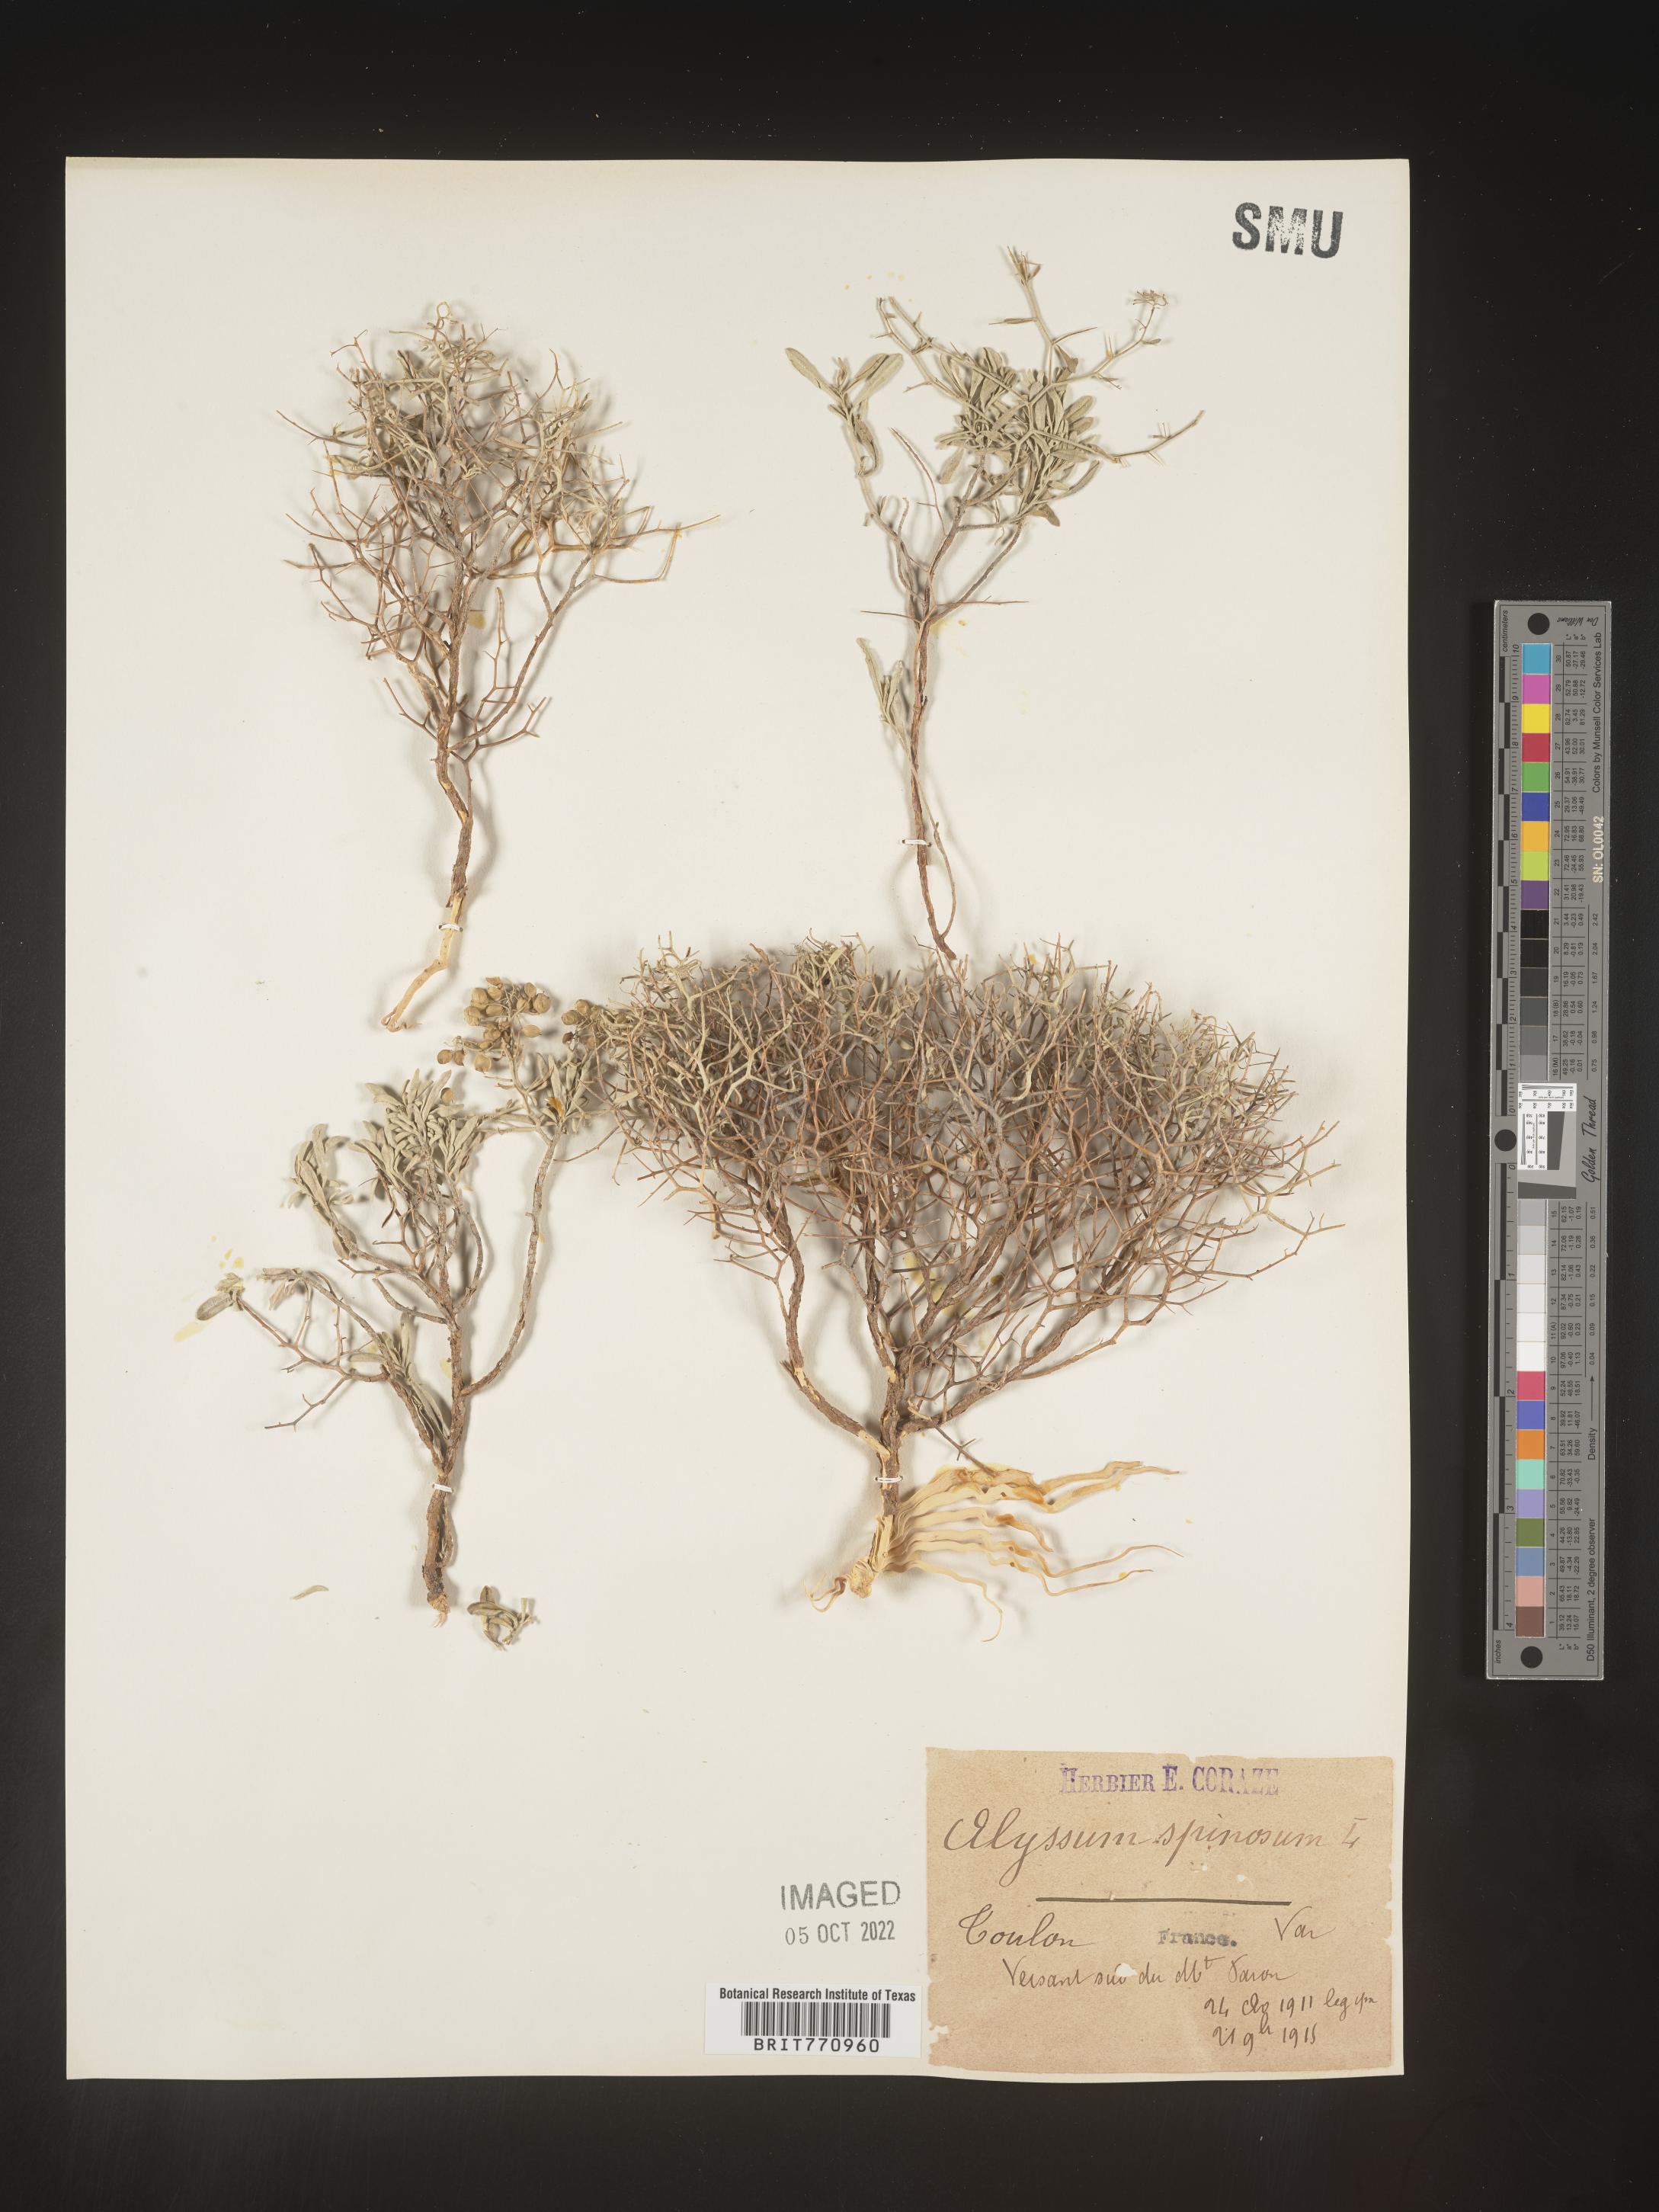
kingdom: Plantae
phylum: Tracheophyta
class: Magnoliopsida
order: Brassicales
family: Brassicaceae
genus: Alyssum
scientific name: Alyssum
